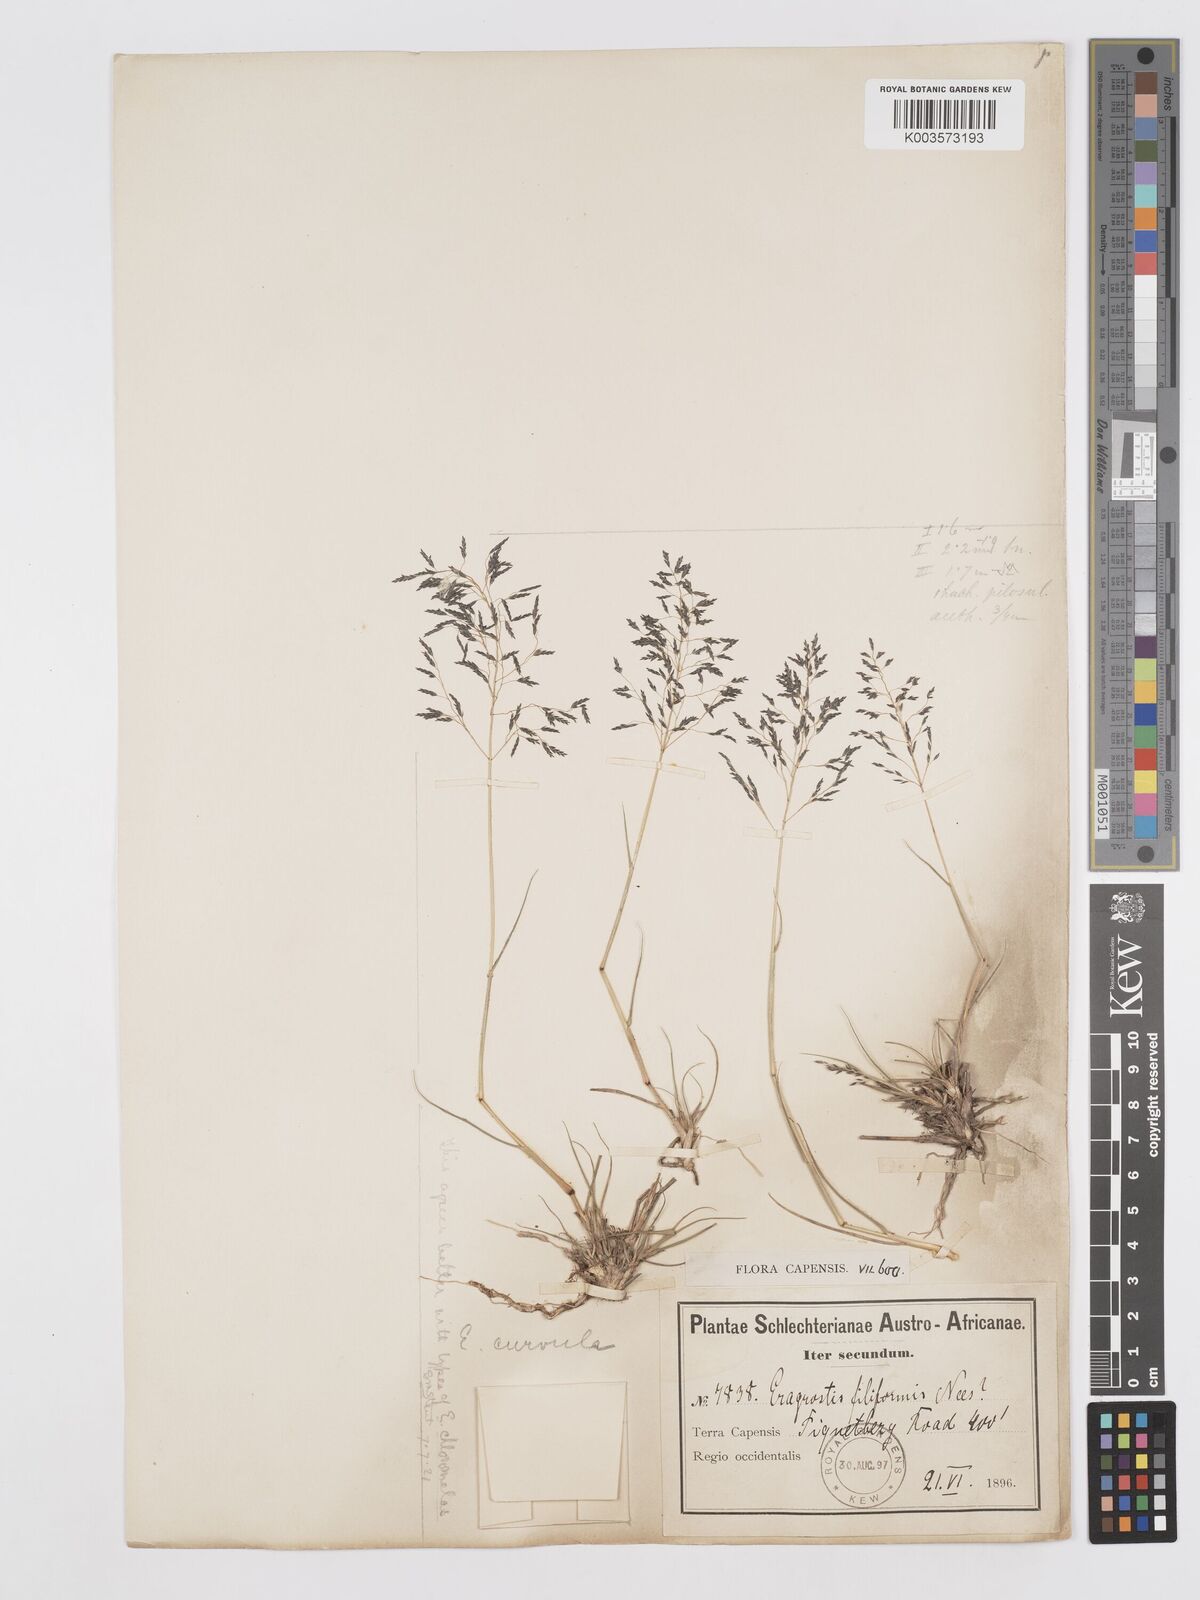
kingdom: Plantae
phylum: Tracheophyta
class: Liliopsida
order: Poales
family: Poaceae
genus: Eragrostis
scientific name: Eragrostis curvula
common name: African love-grass
